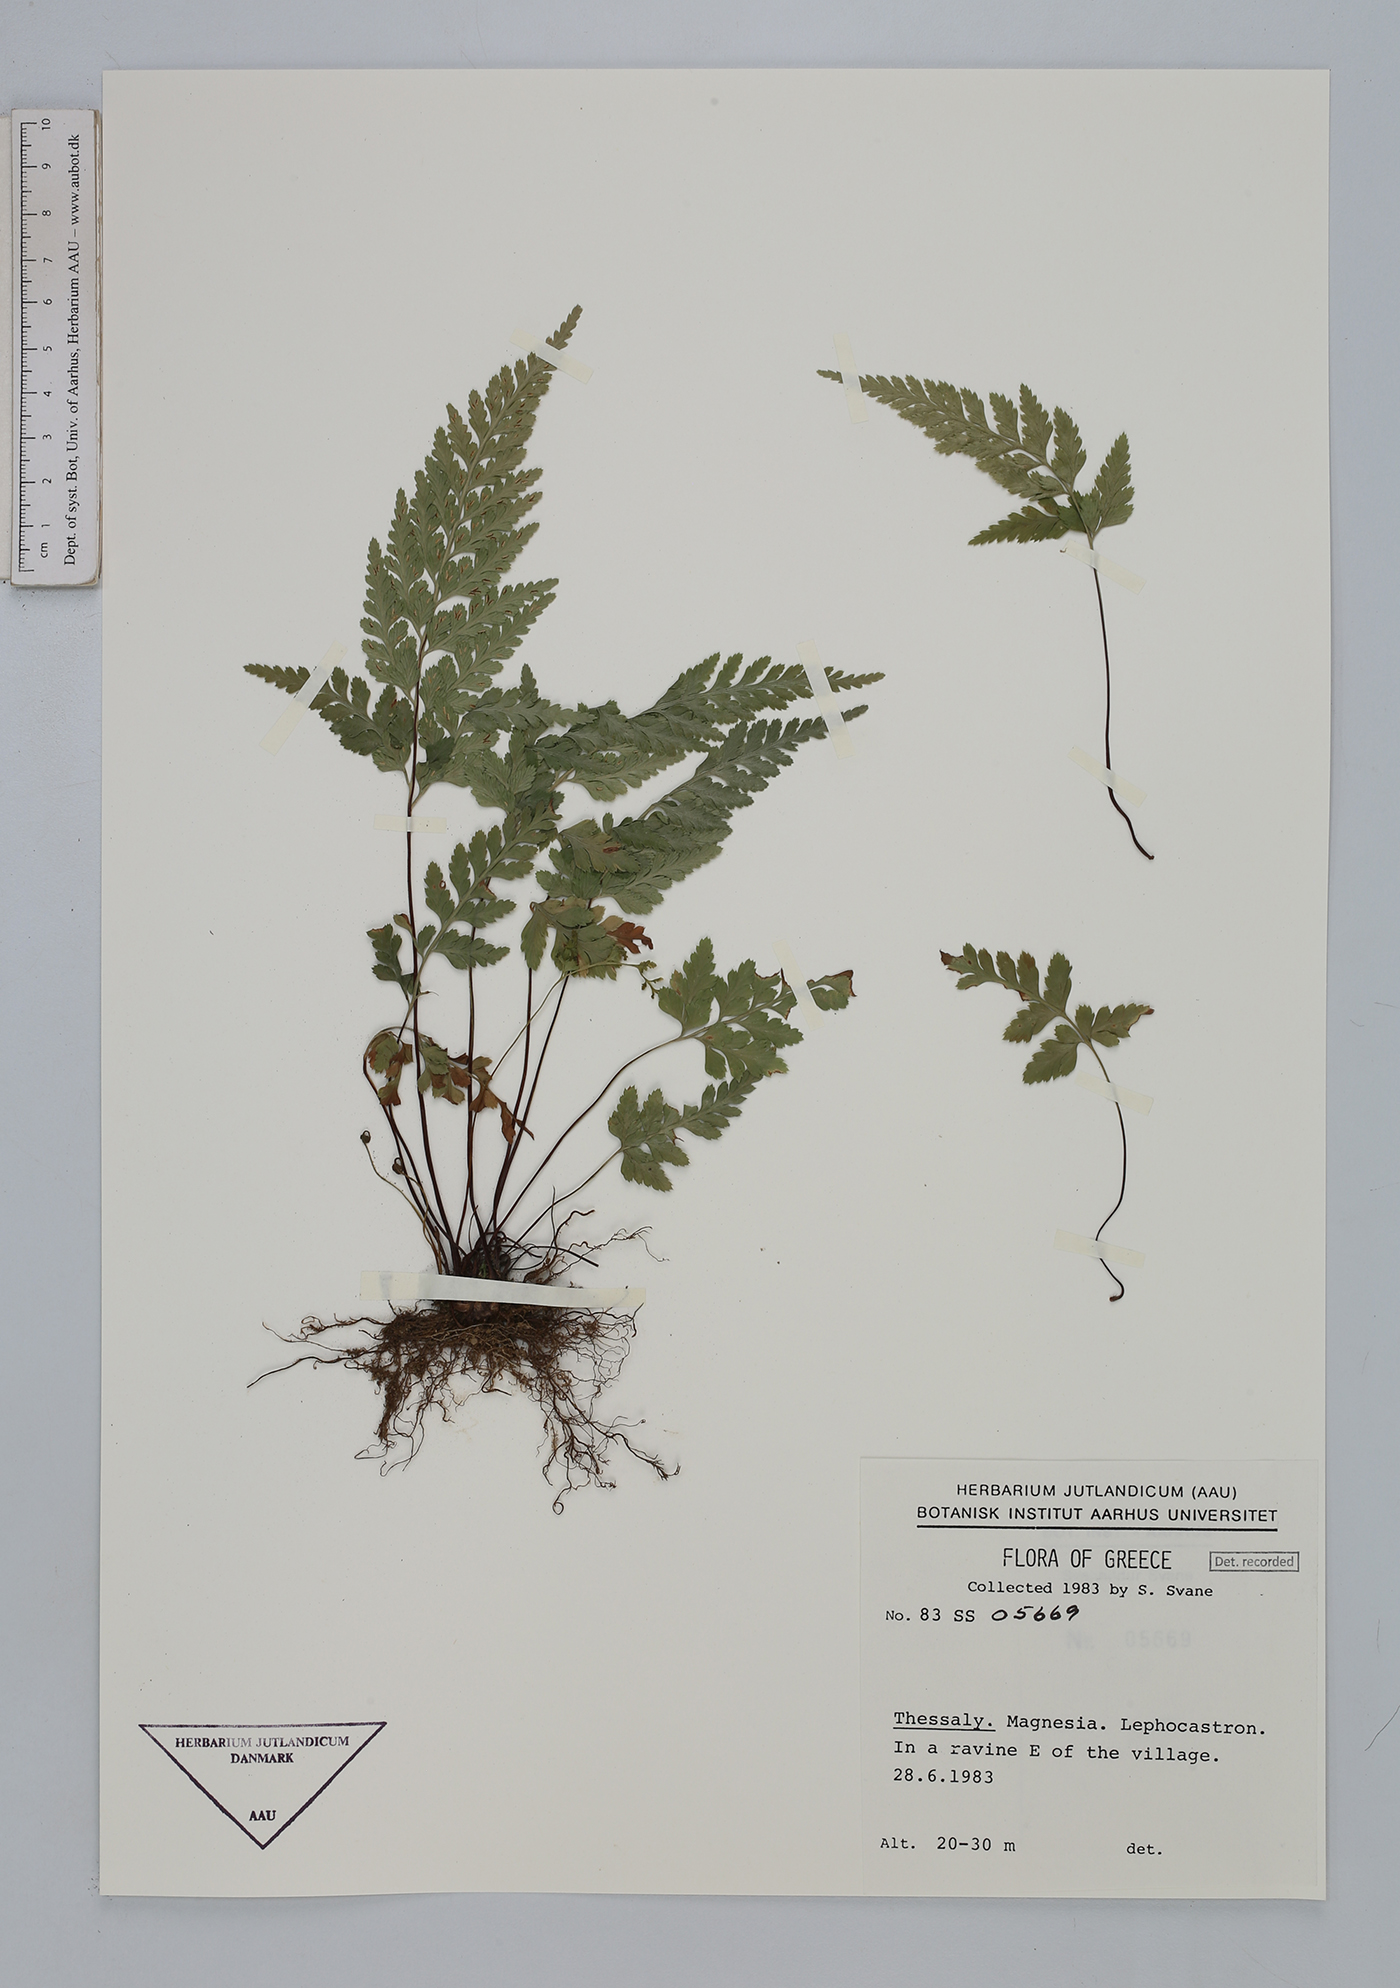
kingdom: Plantae
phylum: Tracheophyta
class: Polypodiopsida
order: Polypodiales
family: Aspleniaceae
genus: Asplenium
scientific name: Asplenium adiantum-nigrum
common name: Black spleenwort
